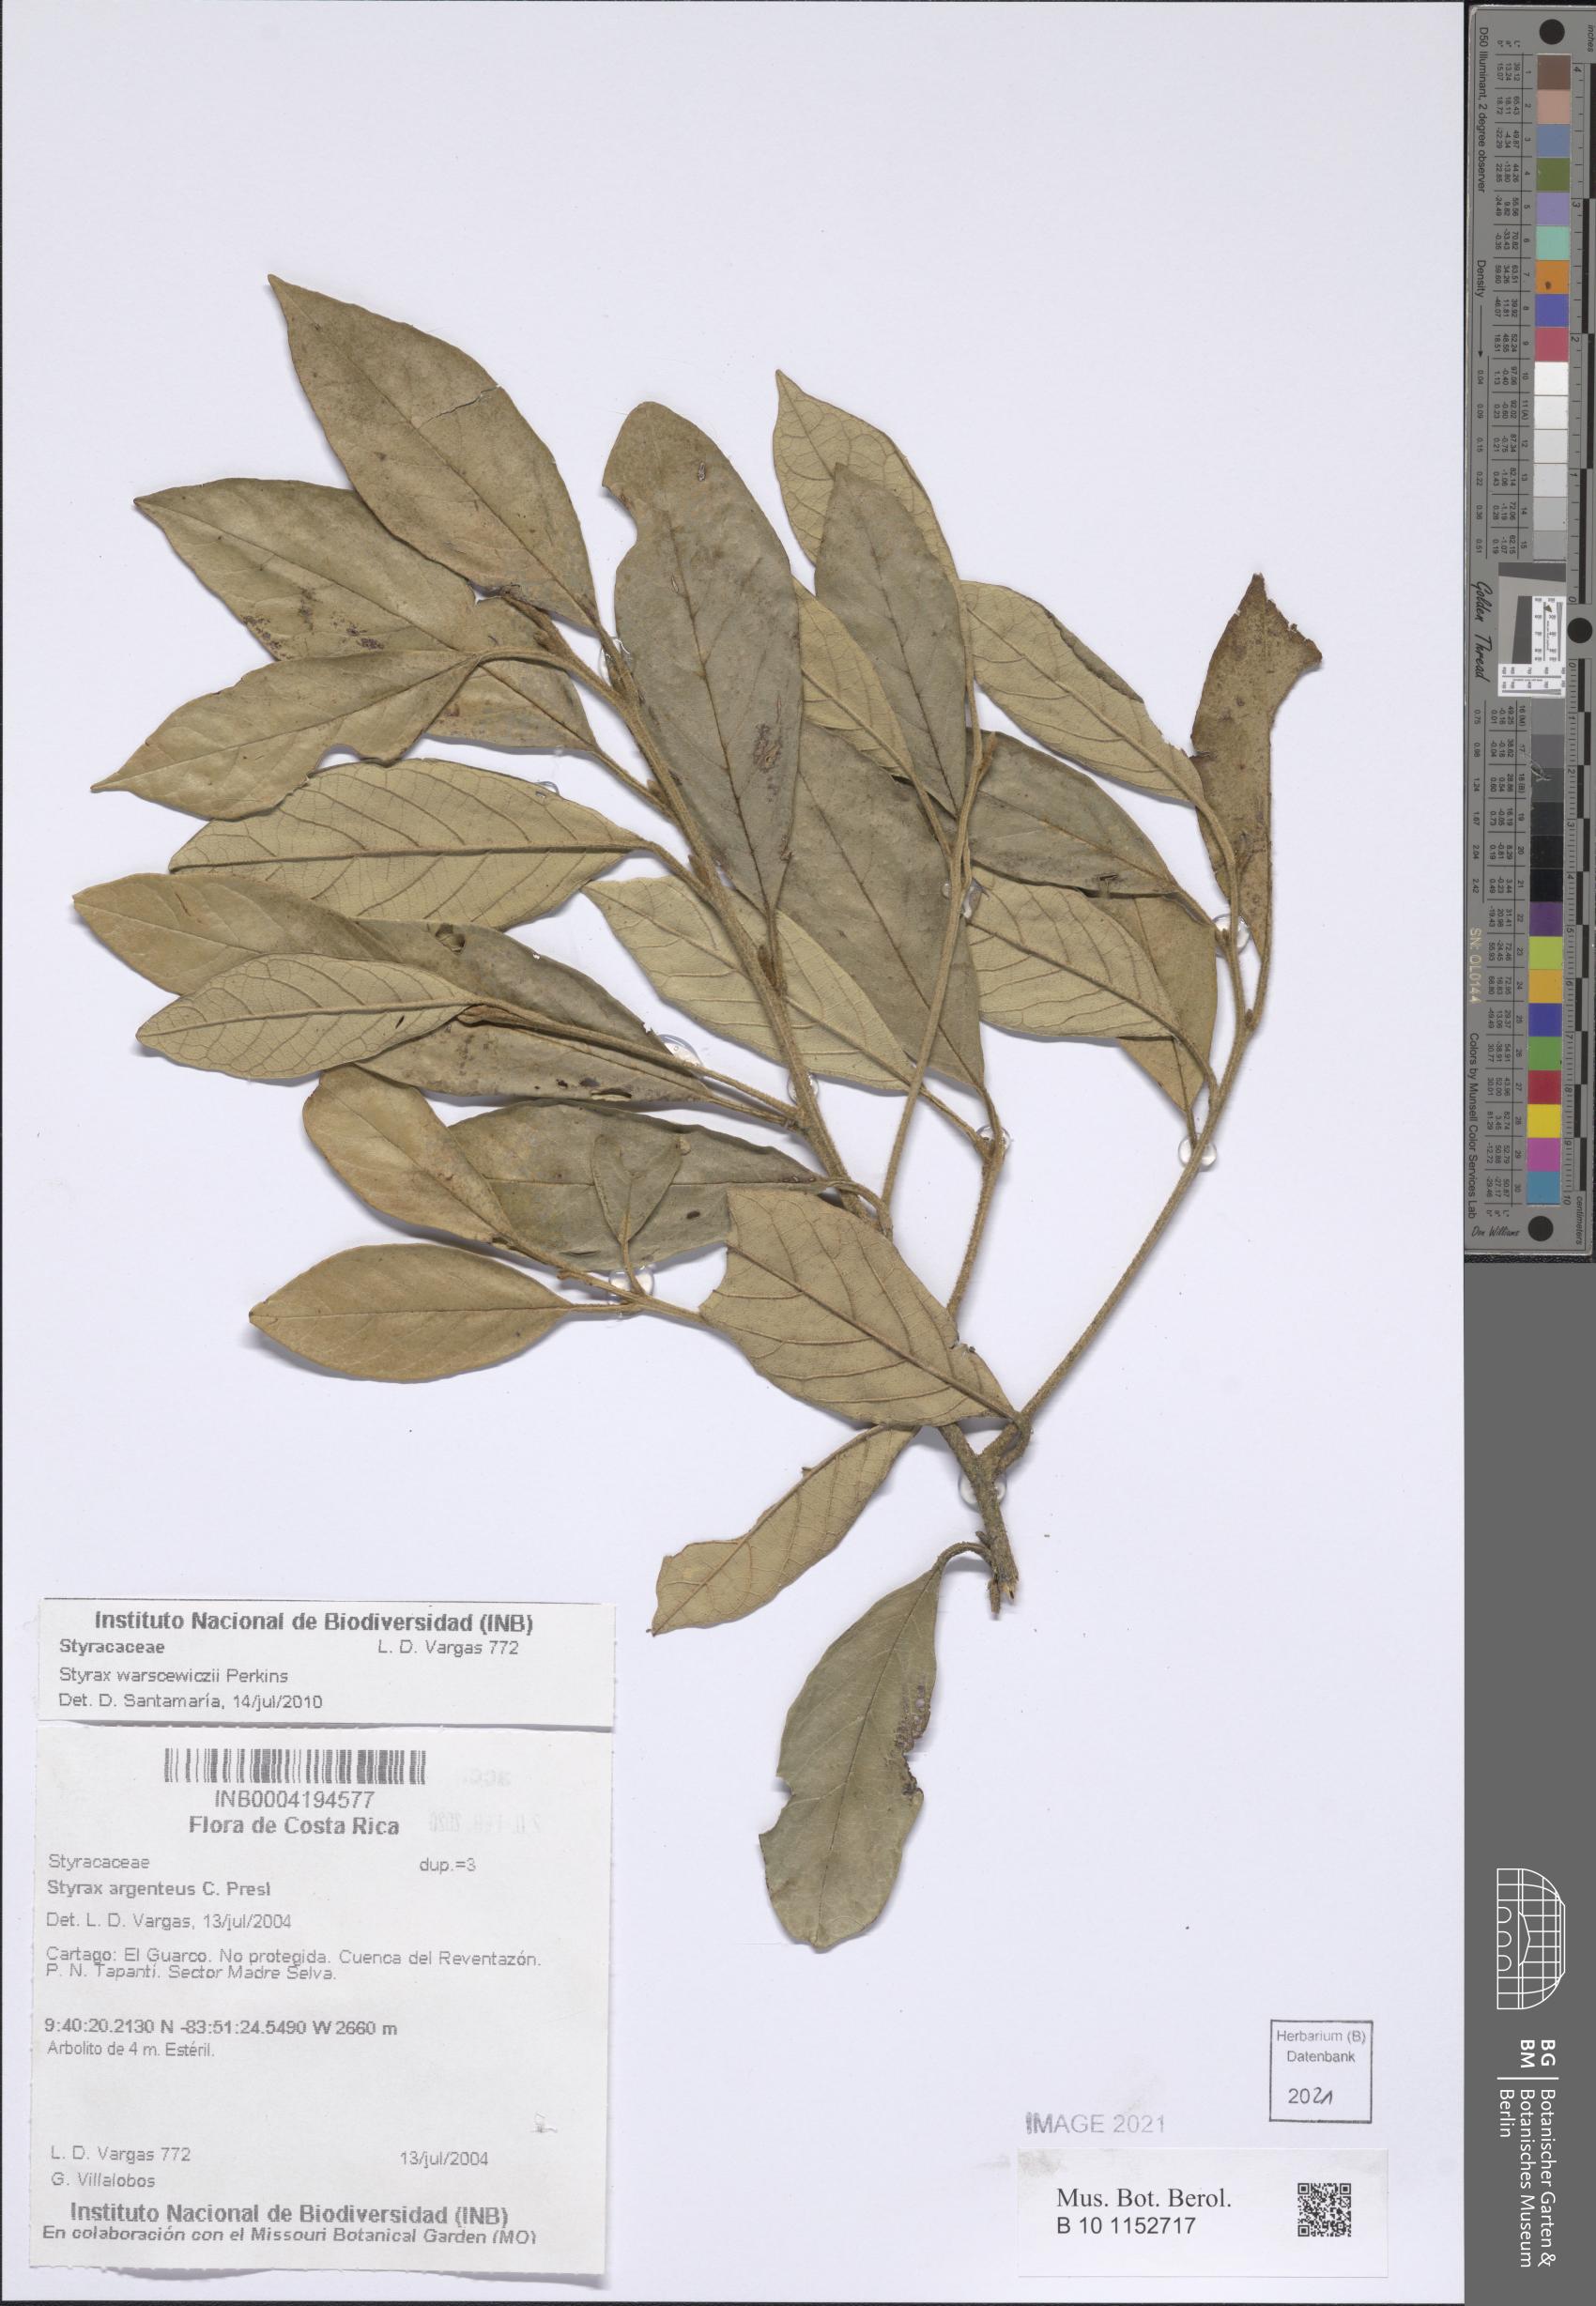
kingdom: Plantae
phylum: Tracheophyta
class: Magnoliopsida
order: Ericales
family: Styracaceae
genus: Styrax
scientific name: Styrax warscewiczii
